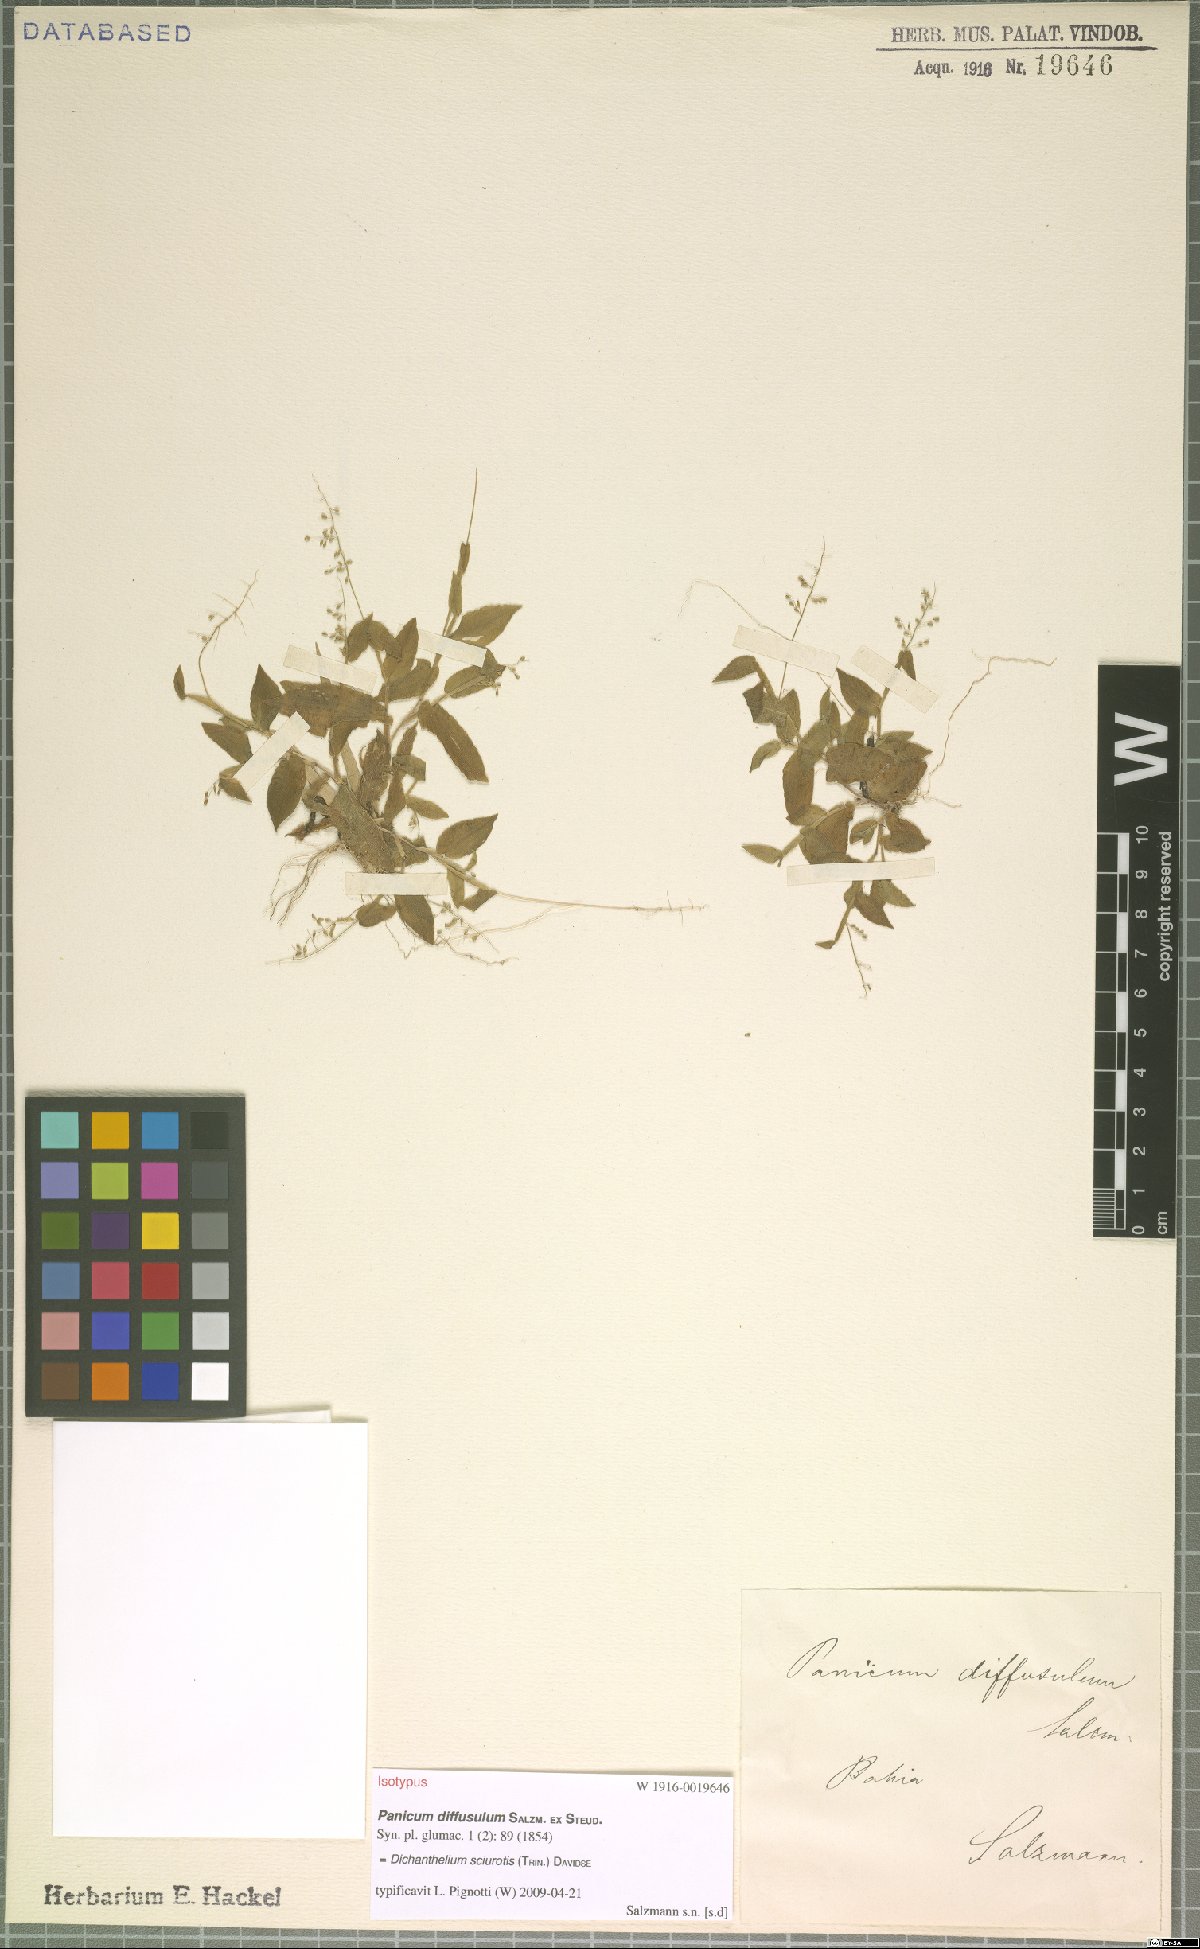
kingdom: Plantae
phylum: Tracheophyta
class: Liliopsida
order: Poales
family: Poaceae
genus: Dichanthelium
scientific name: Dichanthelium sciurotis
